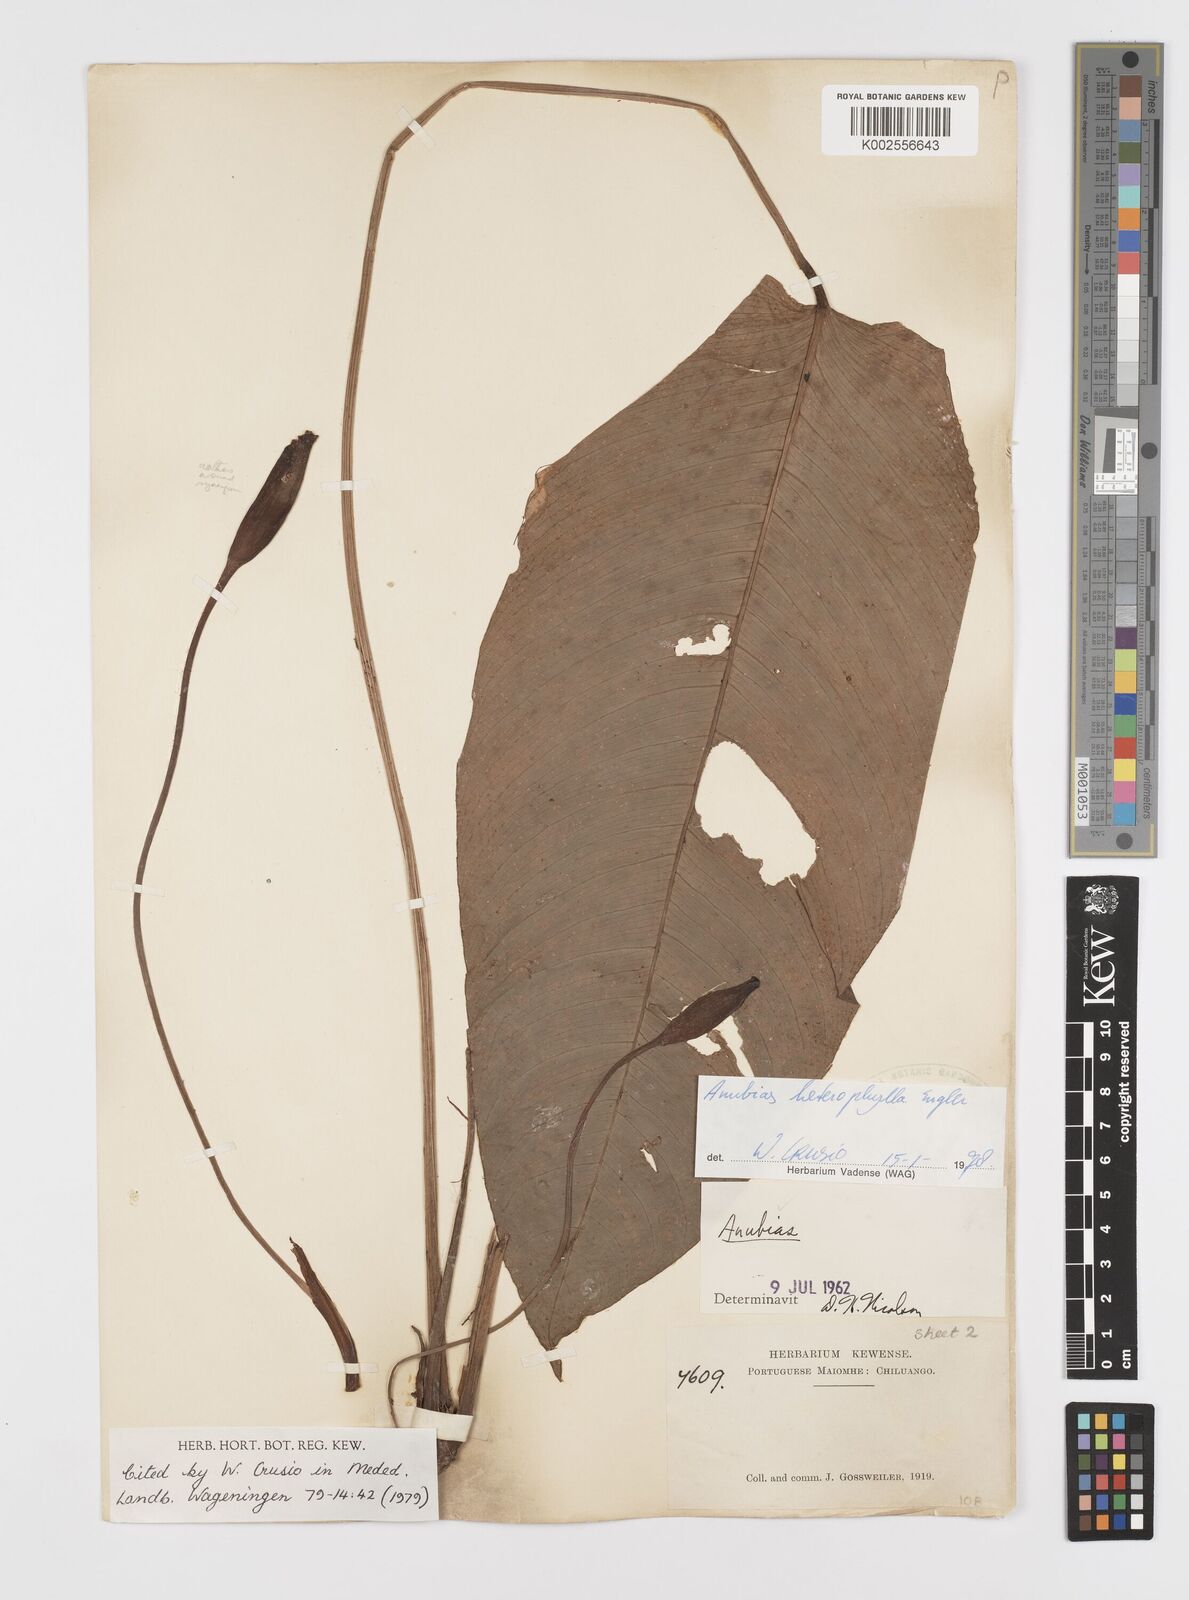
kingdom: Plantae
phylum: Tracheophyta
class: Liliopsida
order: Alismatales
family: Araceae
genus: Anubias
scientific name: Anubias heterophylla
